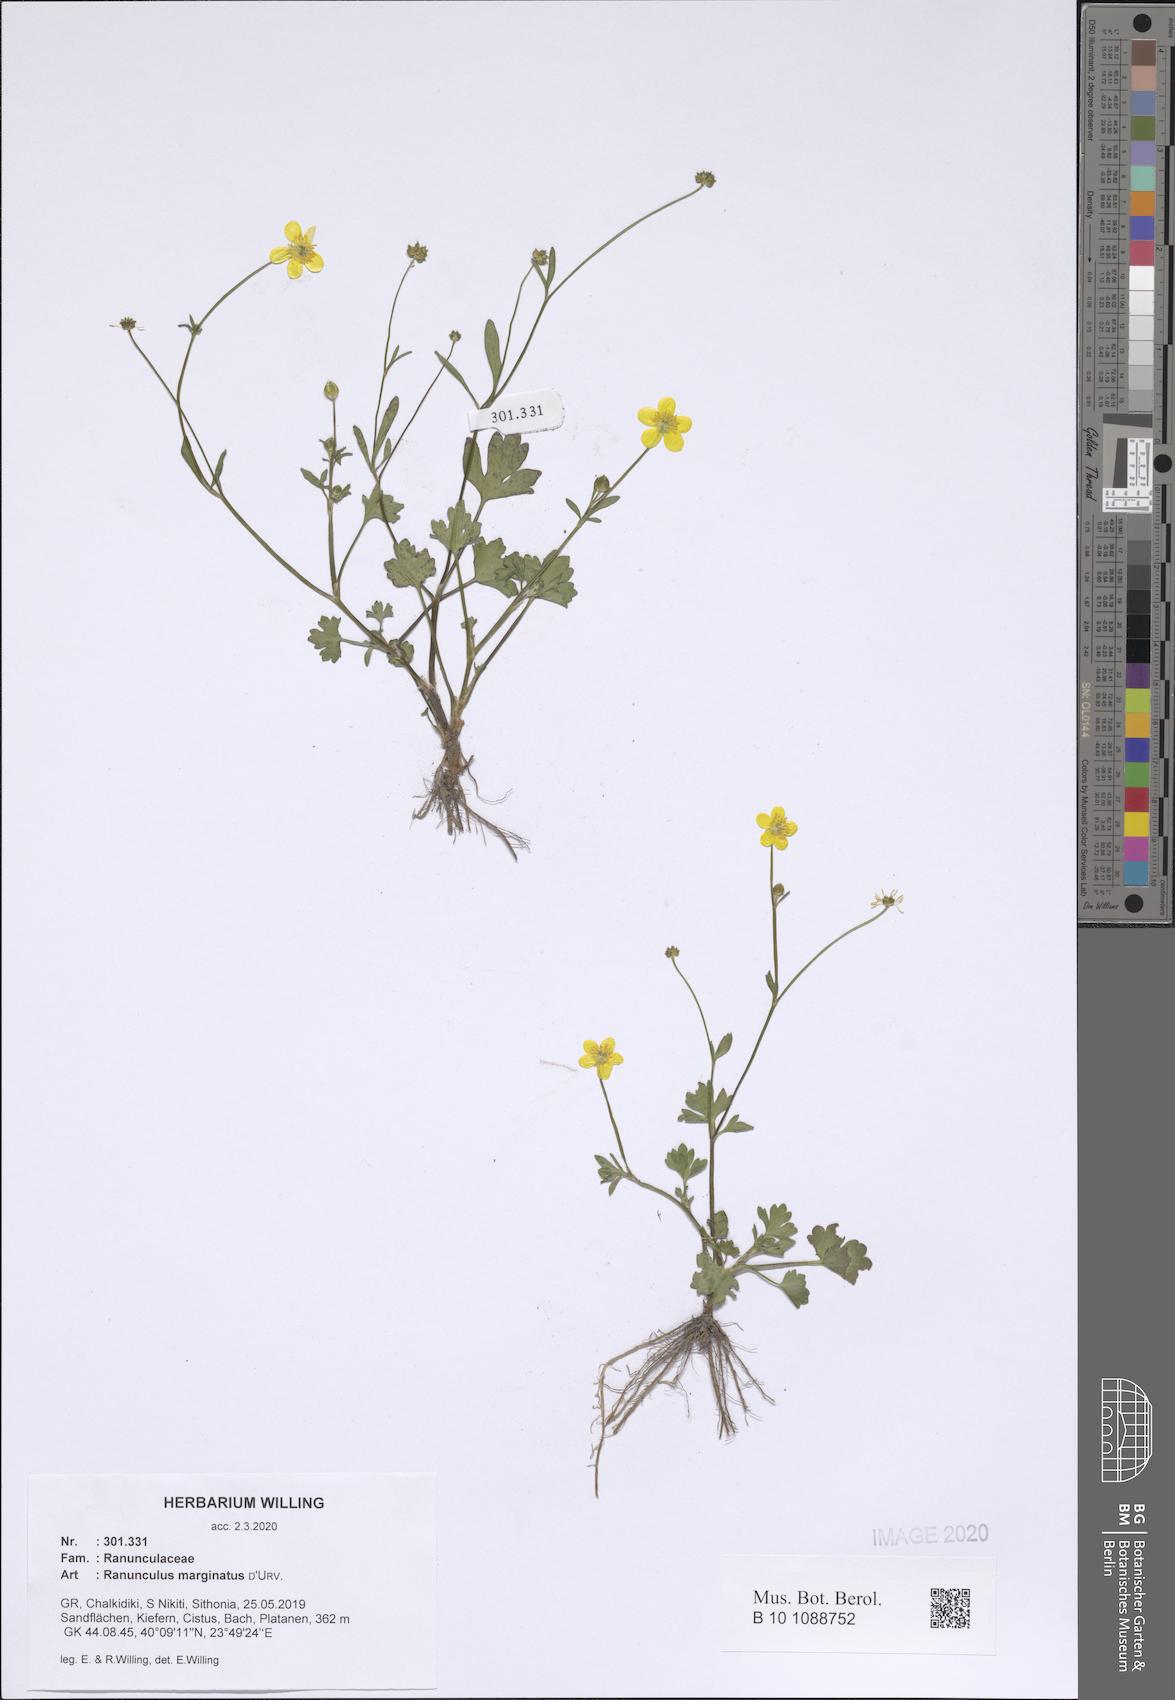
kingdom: Plantae
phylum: Tracheophyta
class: Magnoliopsida
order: Ranunculales
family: Ranunculaceae
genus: Ranunculus
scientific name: Ranunculus marginatus
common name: St. martin's buttercup
